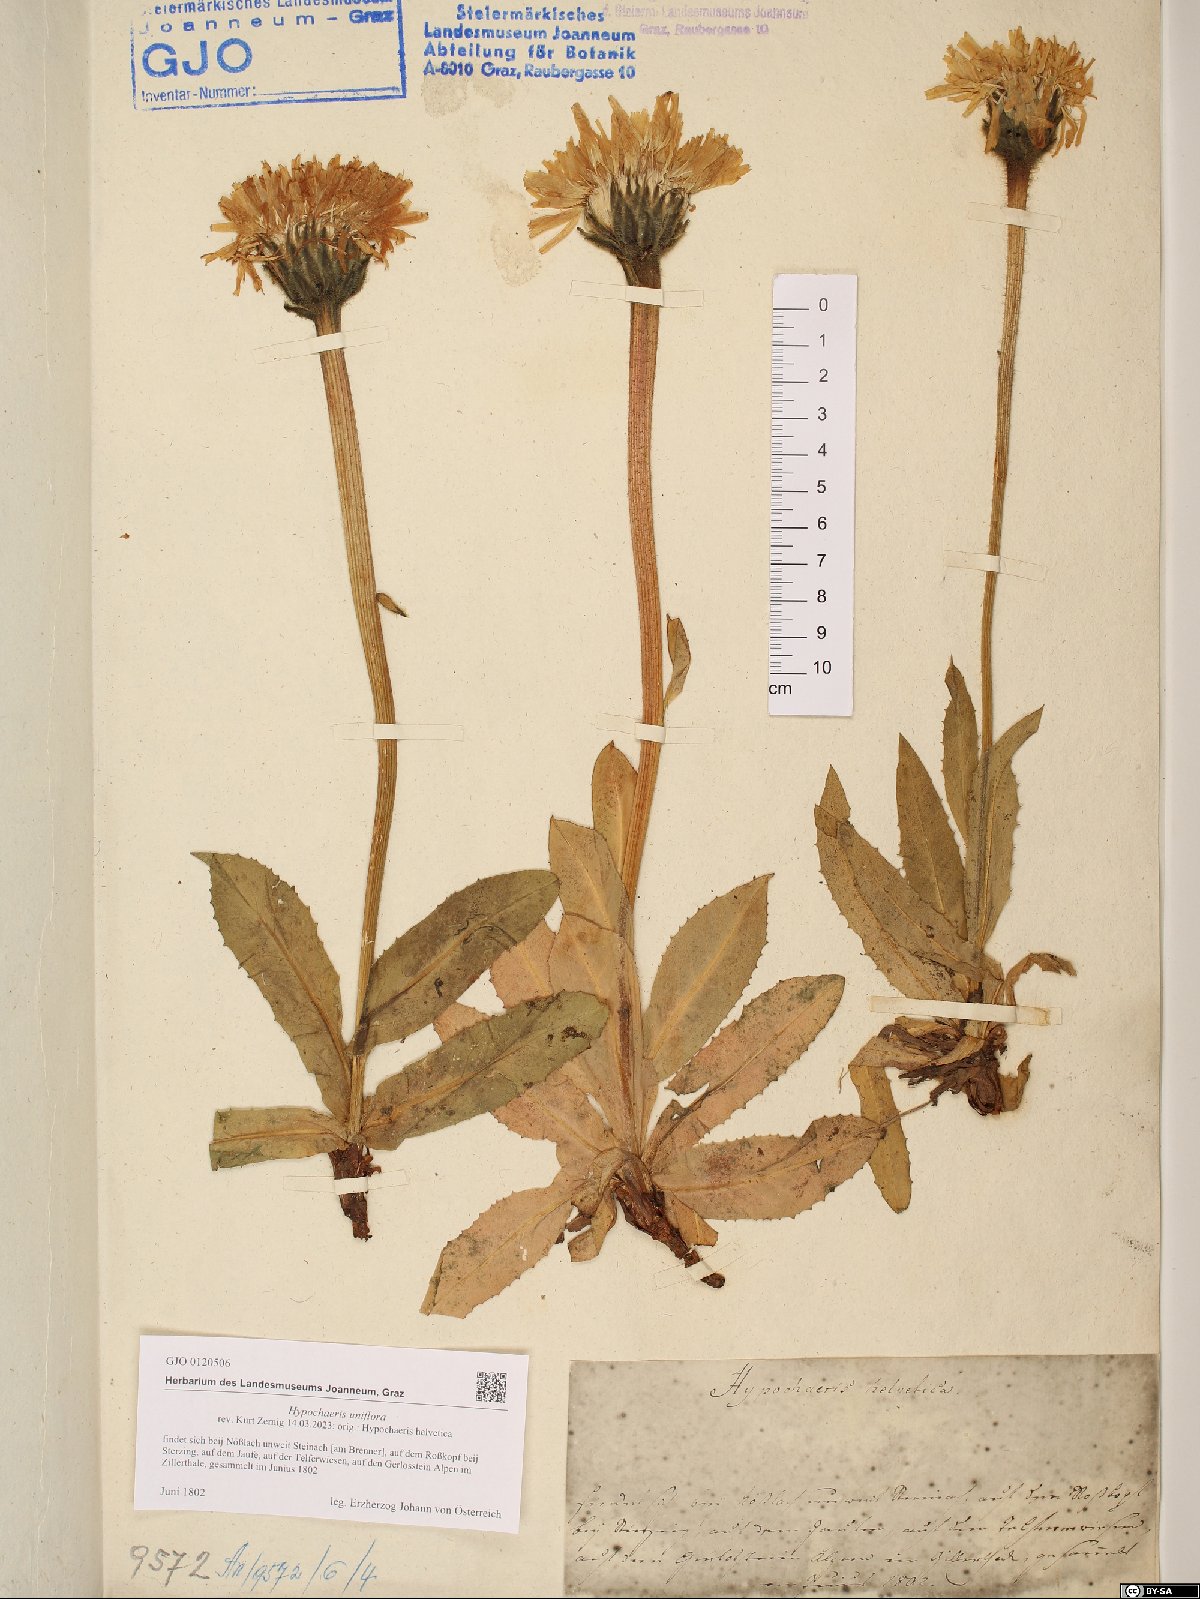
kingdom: Plantae
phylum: Tracheophyta
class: Magnoliopsida
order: Asterales
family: Asteraceae
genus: Trommsdorffia
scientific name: Trommsdorffia uniflora
